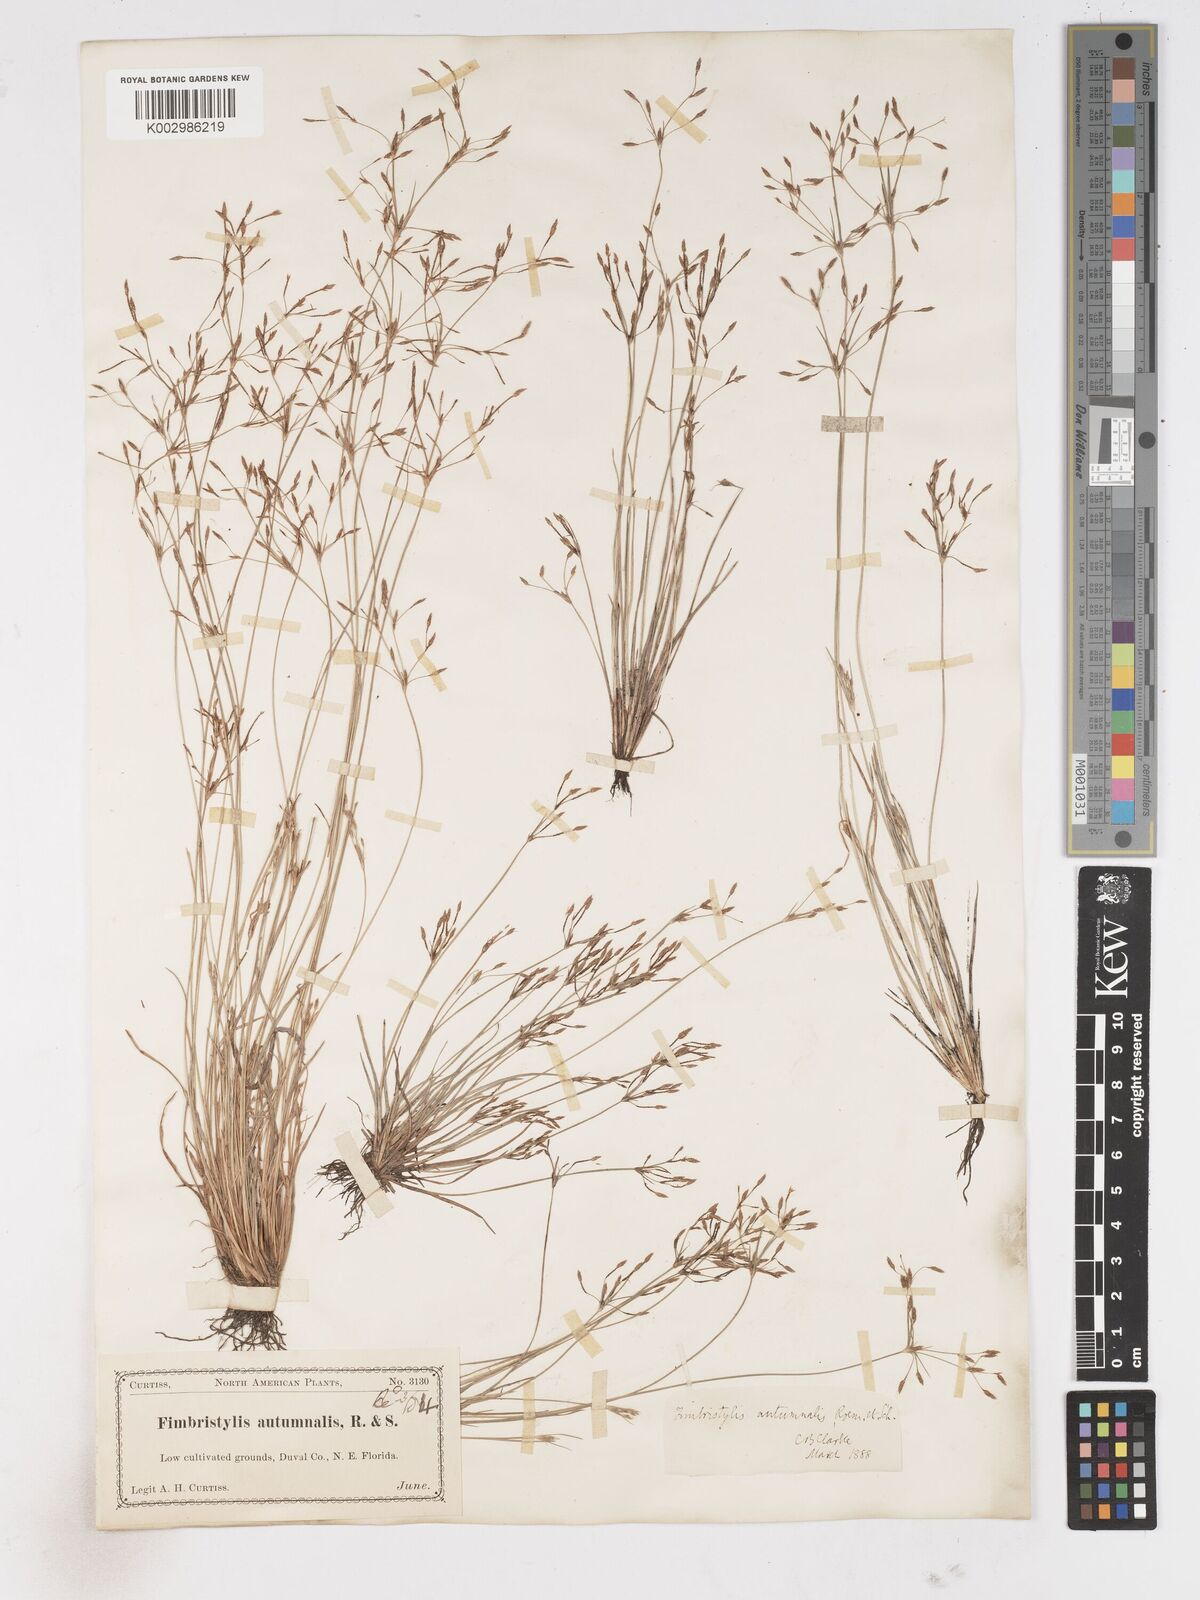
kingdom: Plantae
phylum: Tracheophyta
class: Liliopsida
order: Poales
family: Cyperaceae
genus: Fimbristylis
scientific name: Fimbristylis autumnalis
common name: Slender fimbristylis
